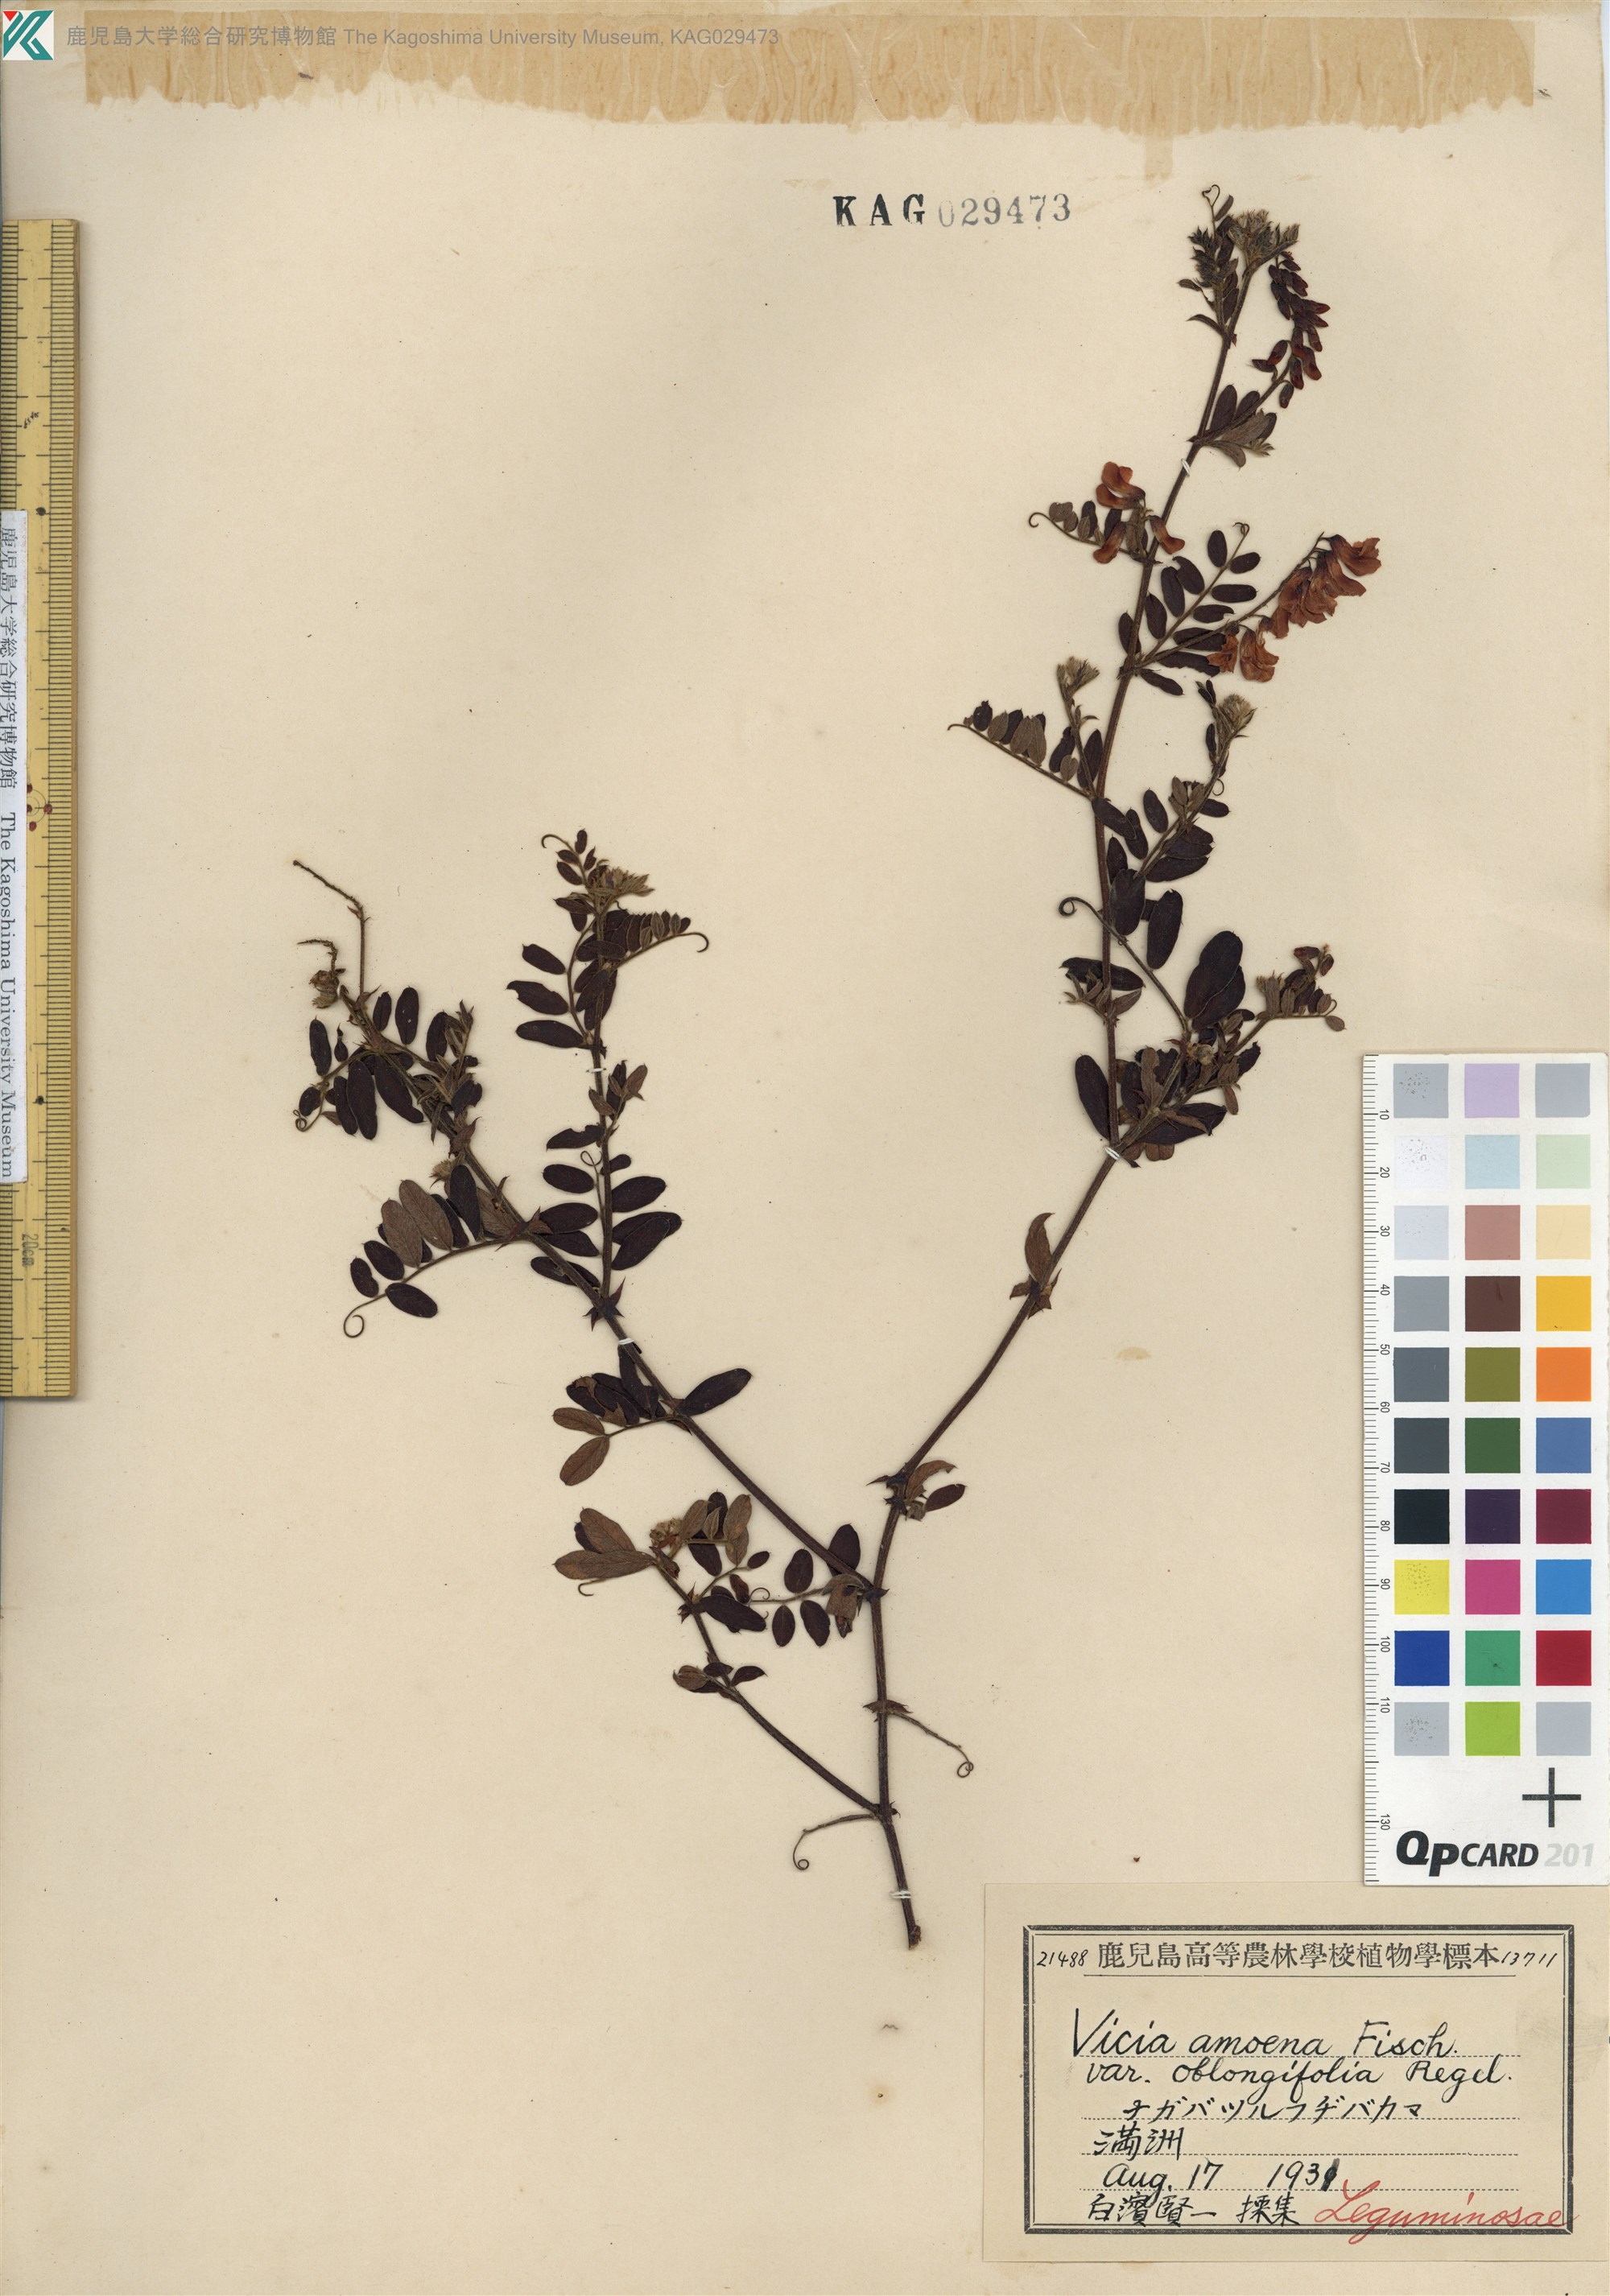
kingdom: Plantae
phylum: Tracheophyta
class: Magnoliopsida
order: Fabales
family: Fabaceae
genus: Vicia
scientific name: Vicia amoena
